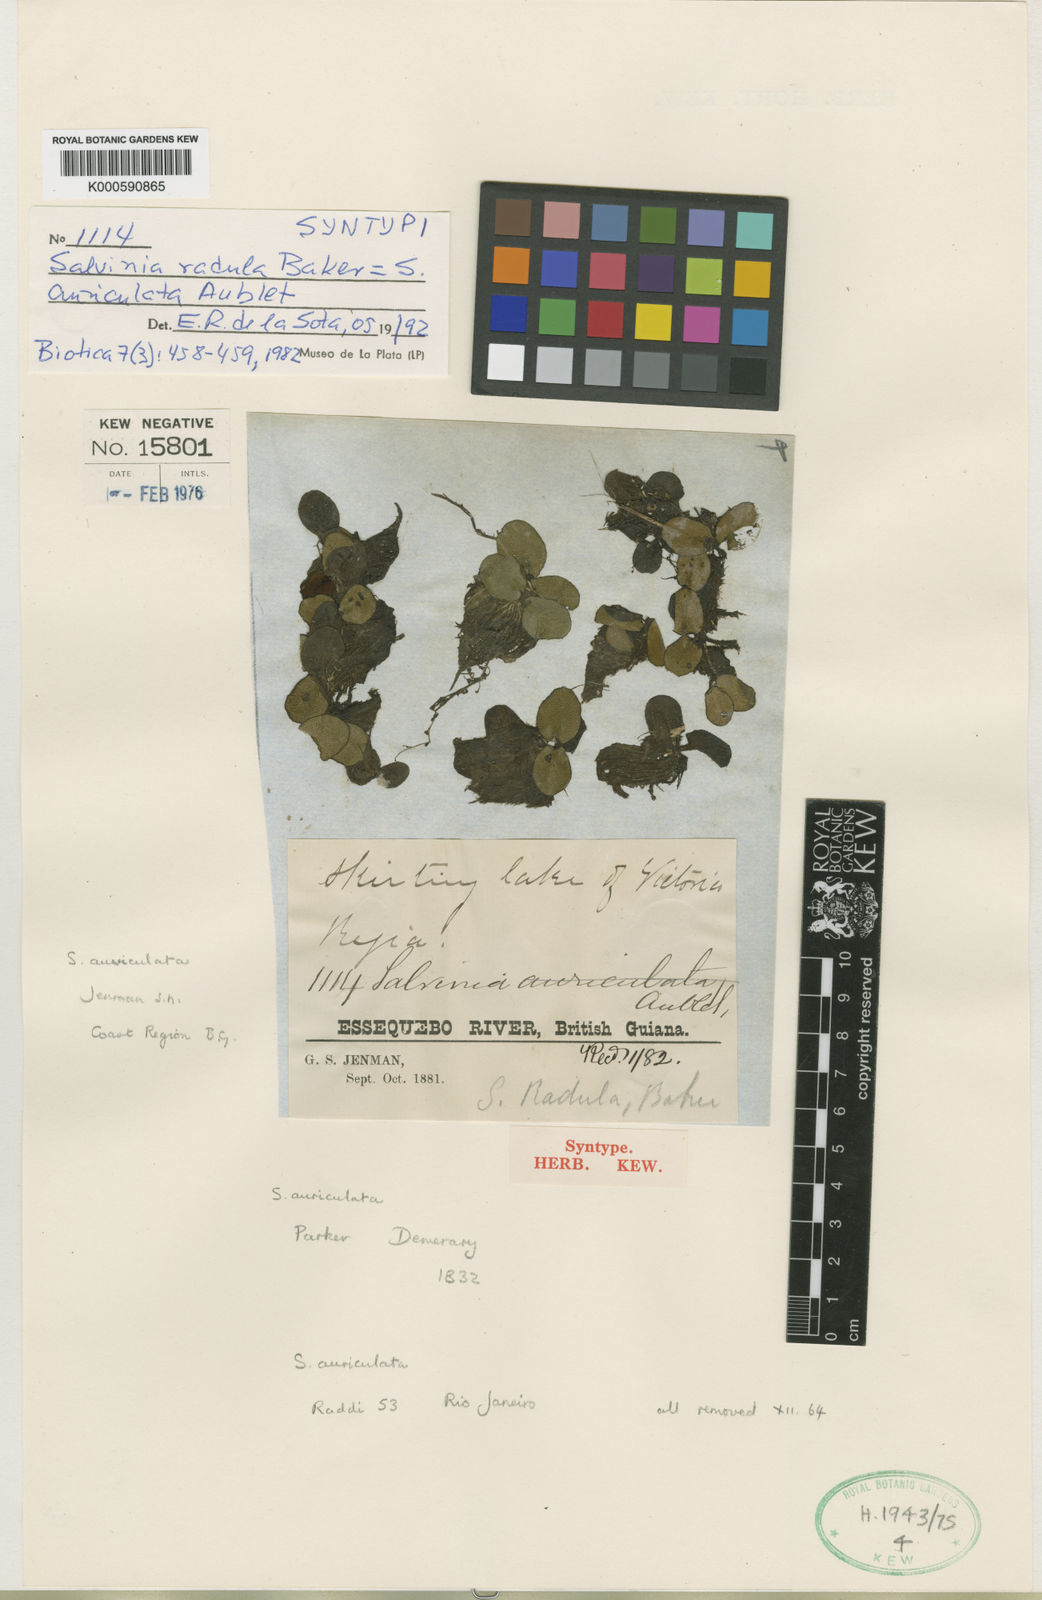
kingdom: Plantae
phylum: Tracheophyta
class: Polypodiopsida
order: Salviniales
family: Salviniaceae
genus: Salvinia
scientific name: Salvinia auriculata
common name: African payal
